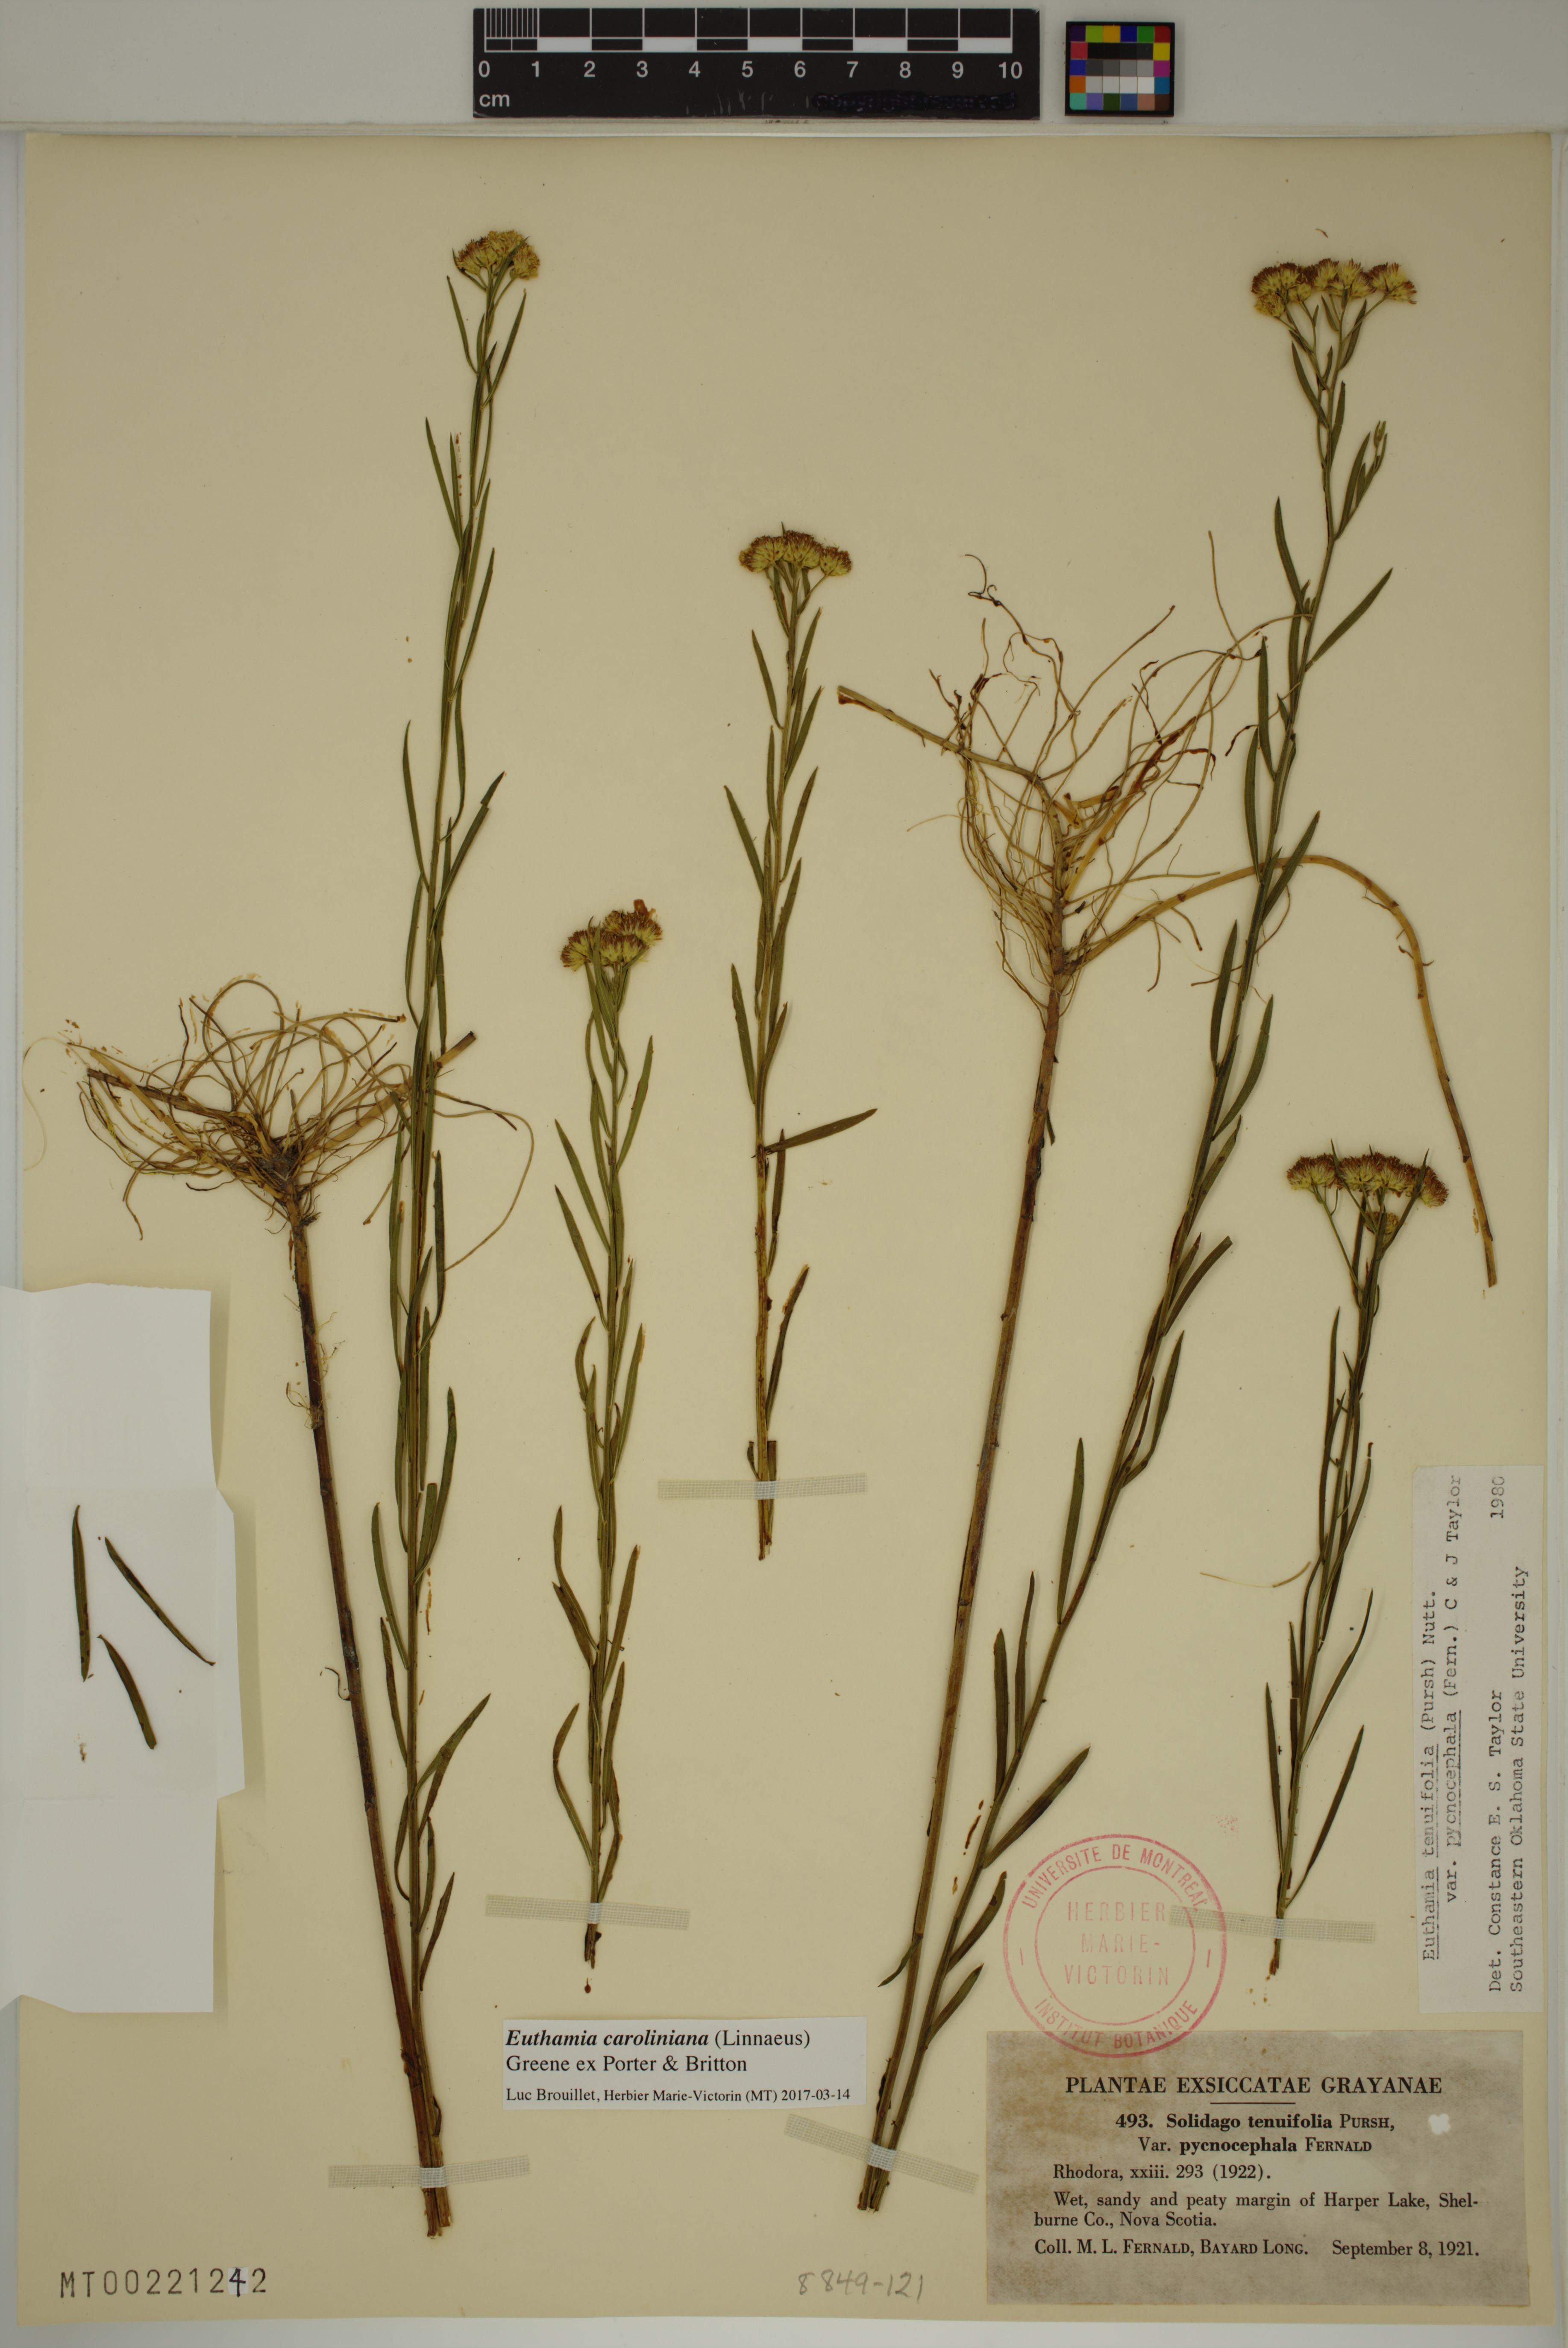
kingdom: Plantae
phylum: Tracheophyta
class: Magnoliopsida
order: Asterales
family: Asteraceae
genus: Euthamia
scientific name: Euthamia galetorum
